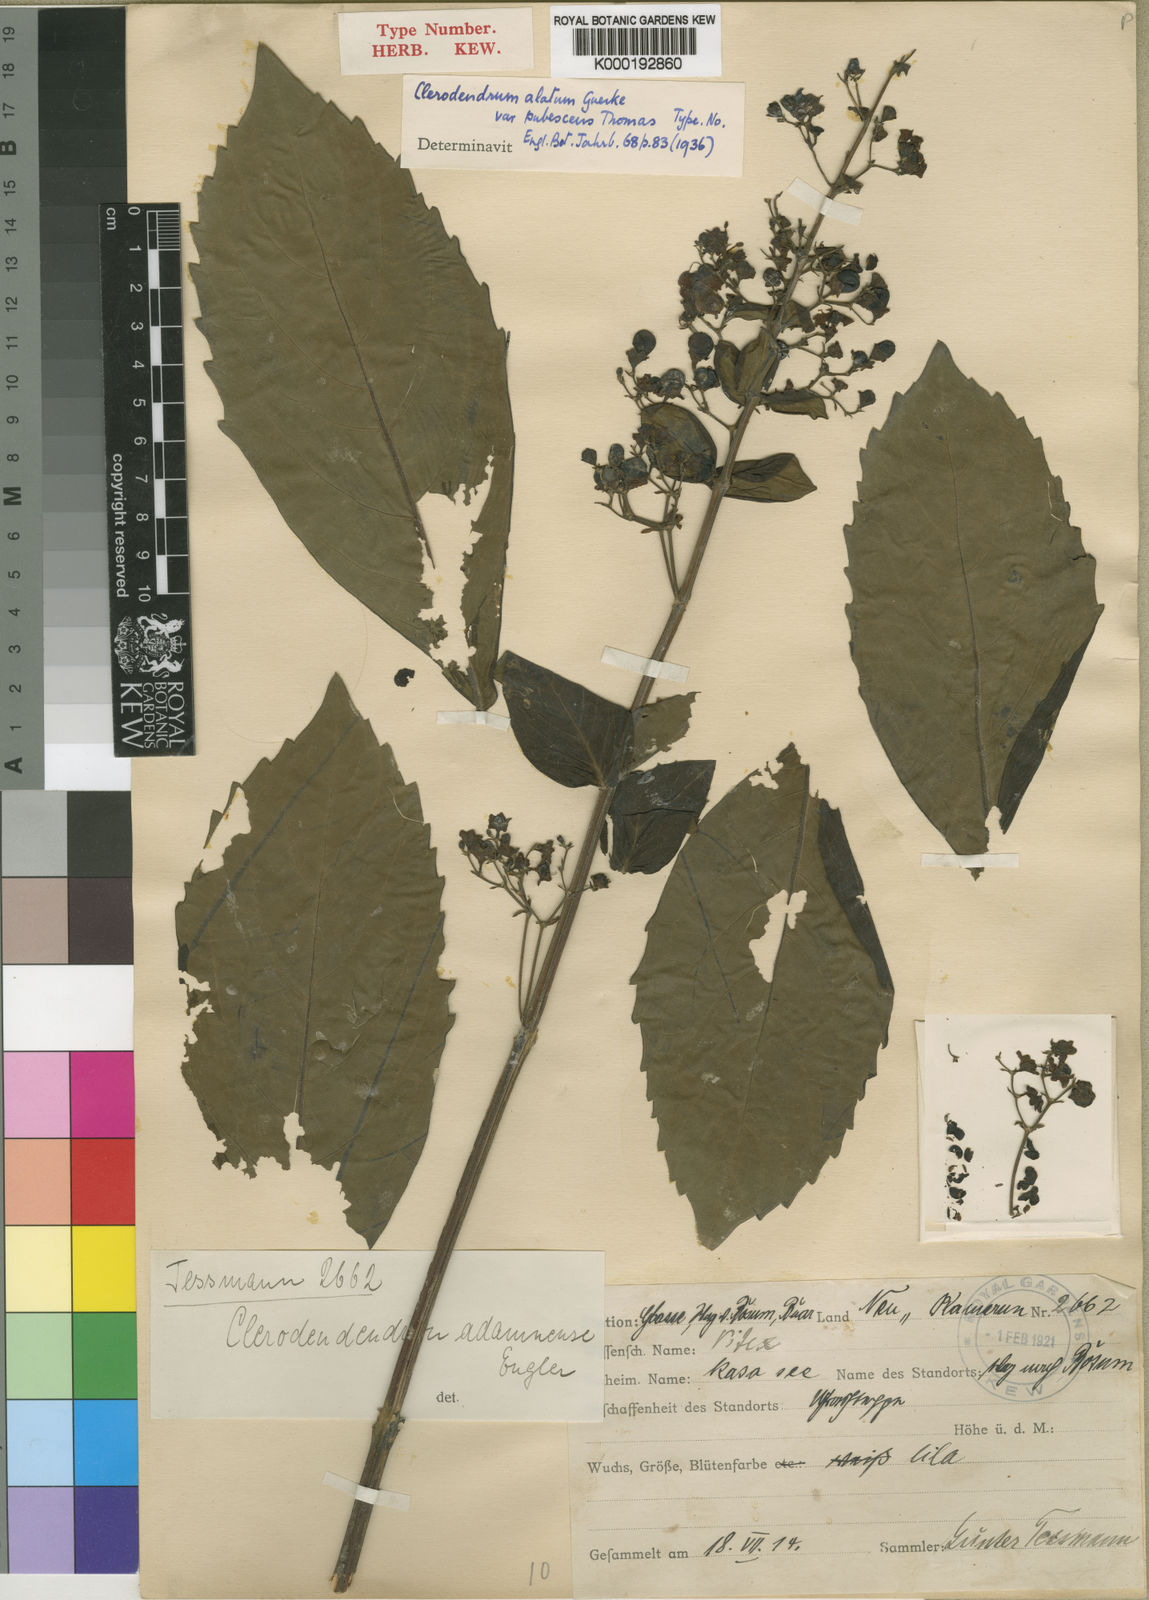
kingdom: Plantae
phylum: Tracheophyta
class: Magnoliopsida
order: Lamiales
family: Lamiaceae
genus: Clerodendrum
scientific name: Clerodendrum
